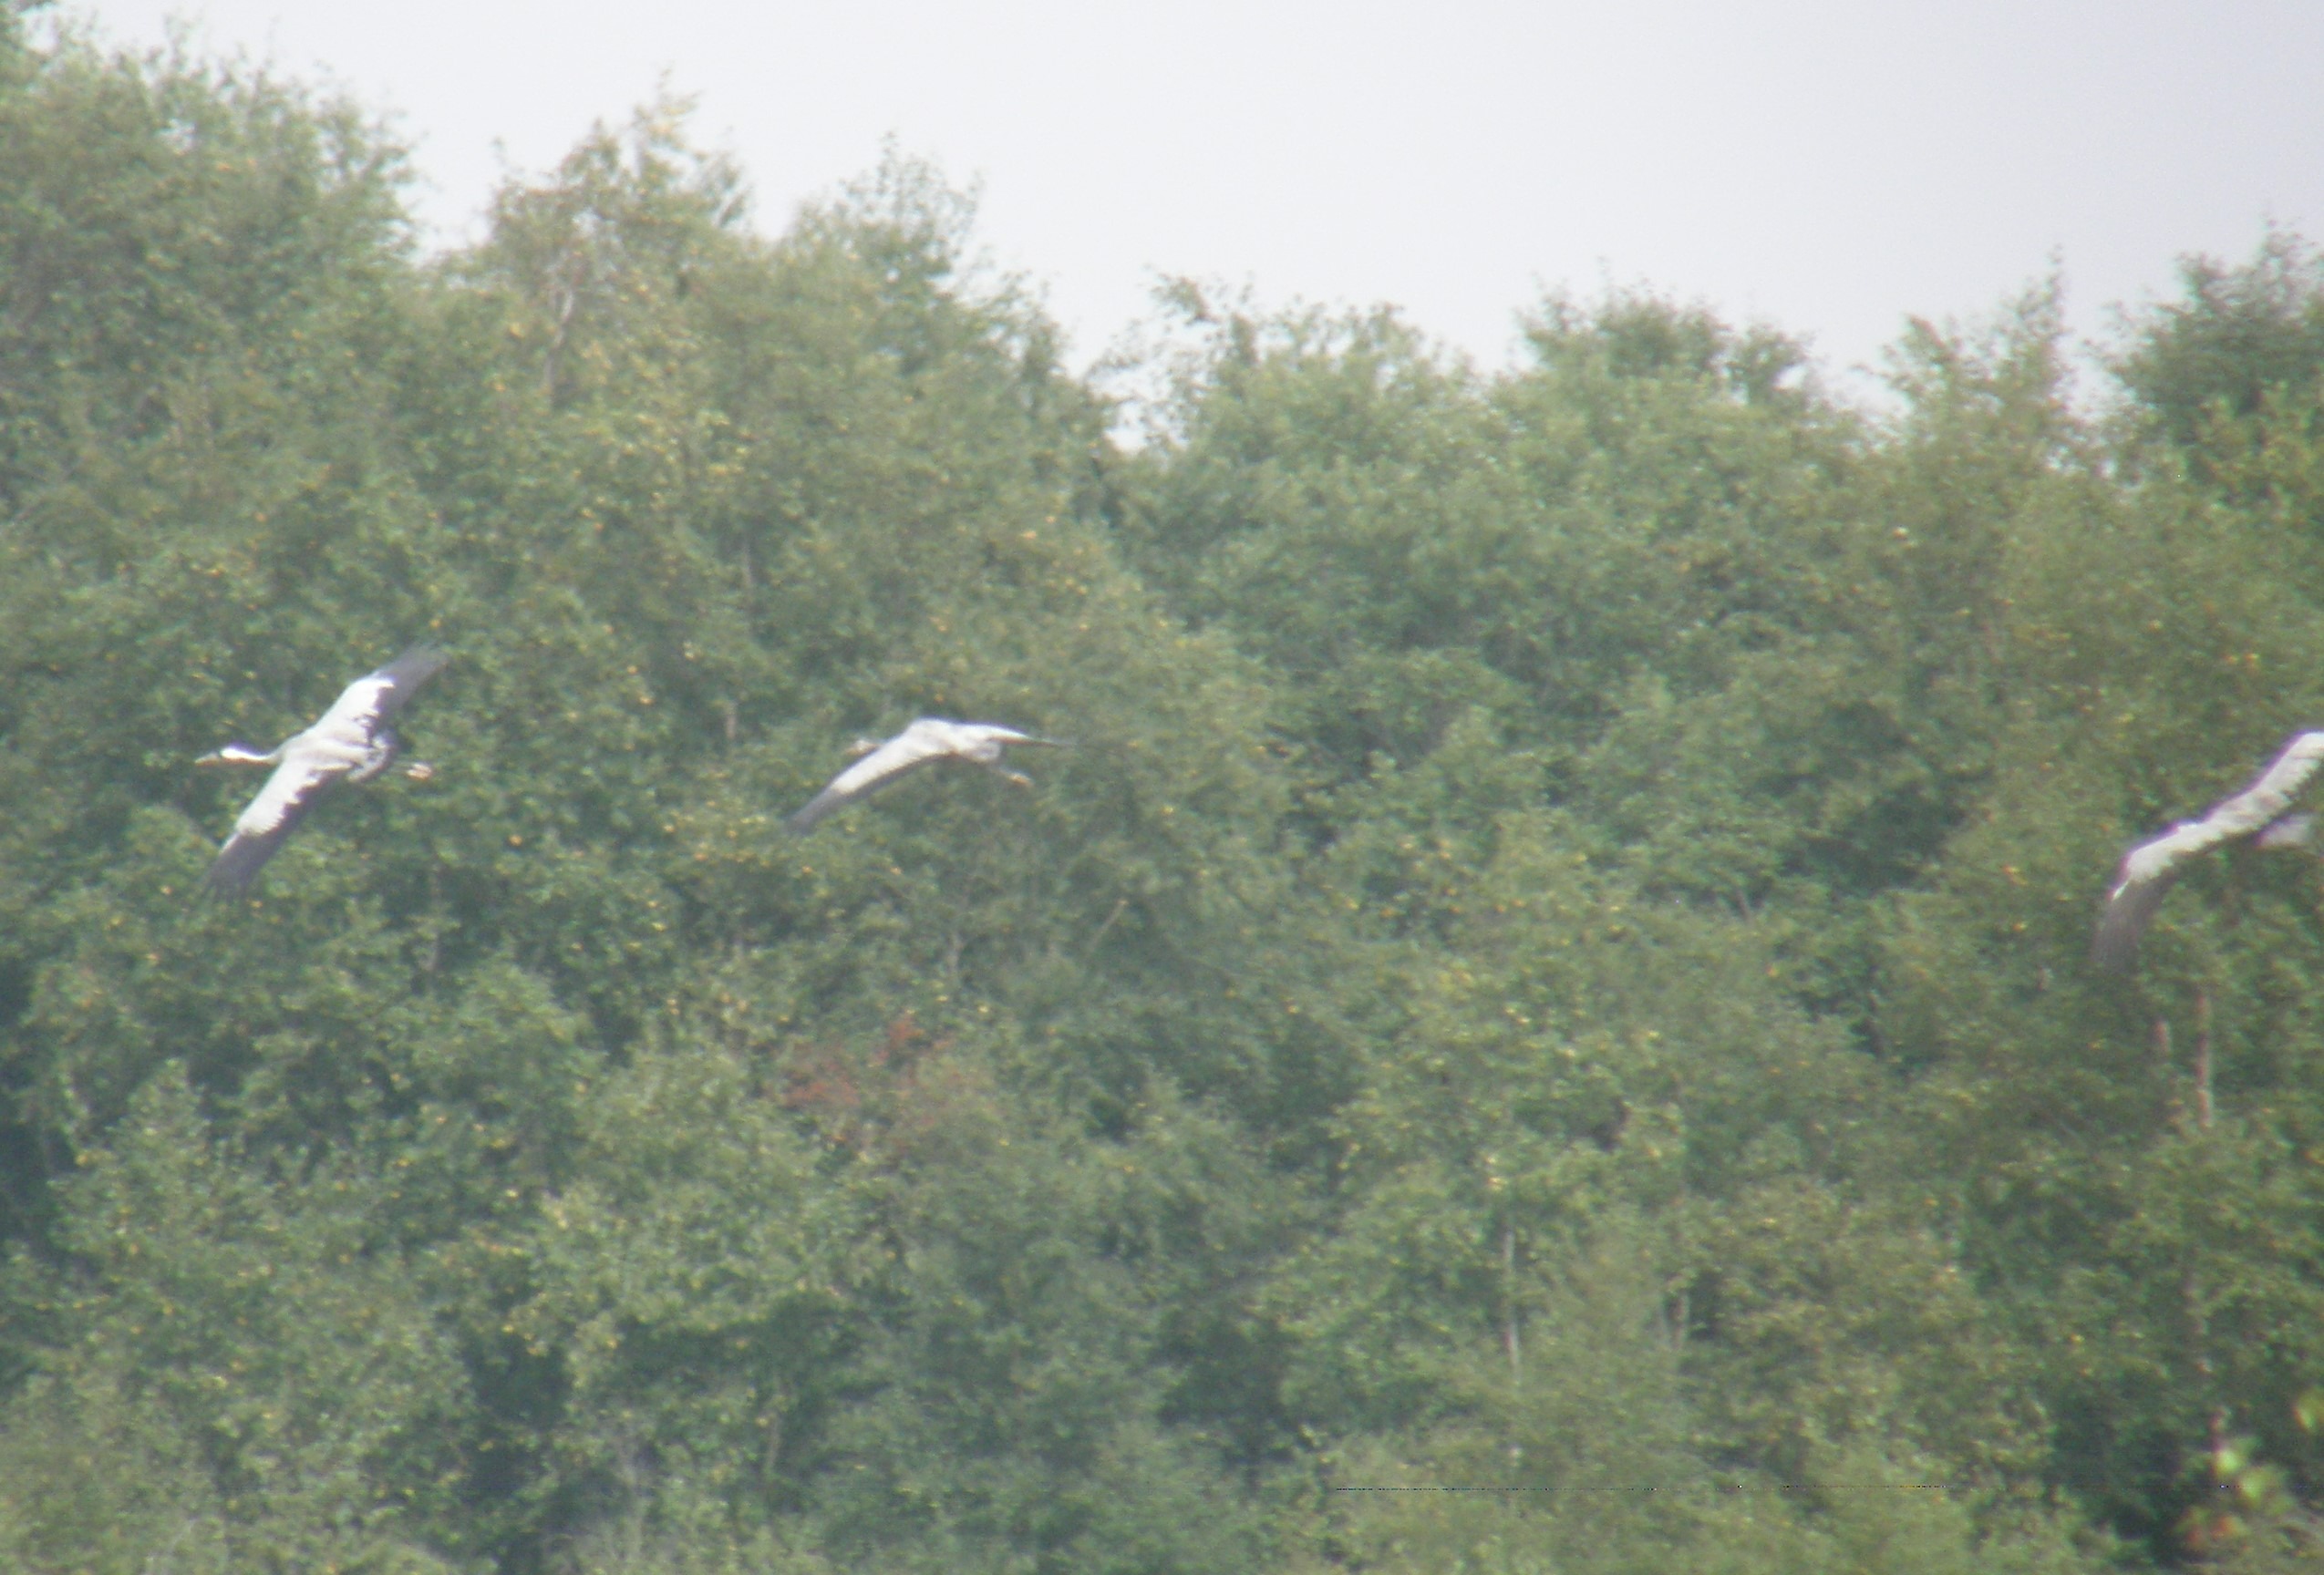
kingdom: Animalia
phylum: Chordata
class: Aves
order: Gruiformes
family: Gruidae
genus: Grus
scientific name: Grus grus
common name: Trane
